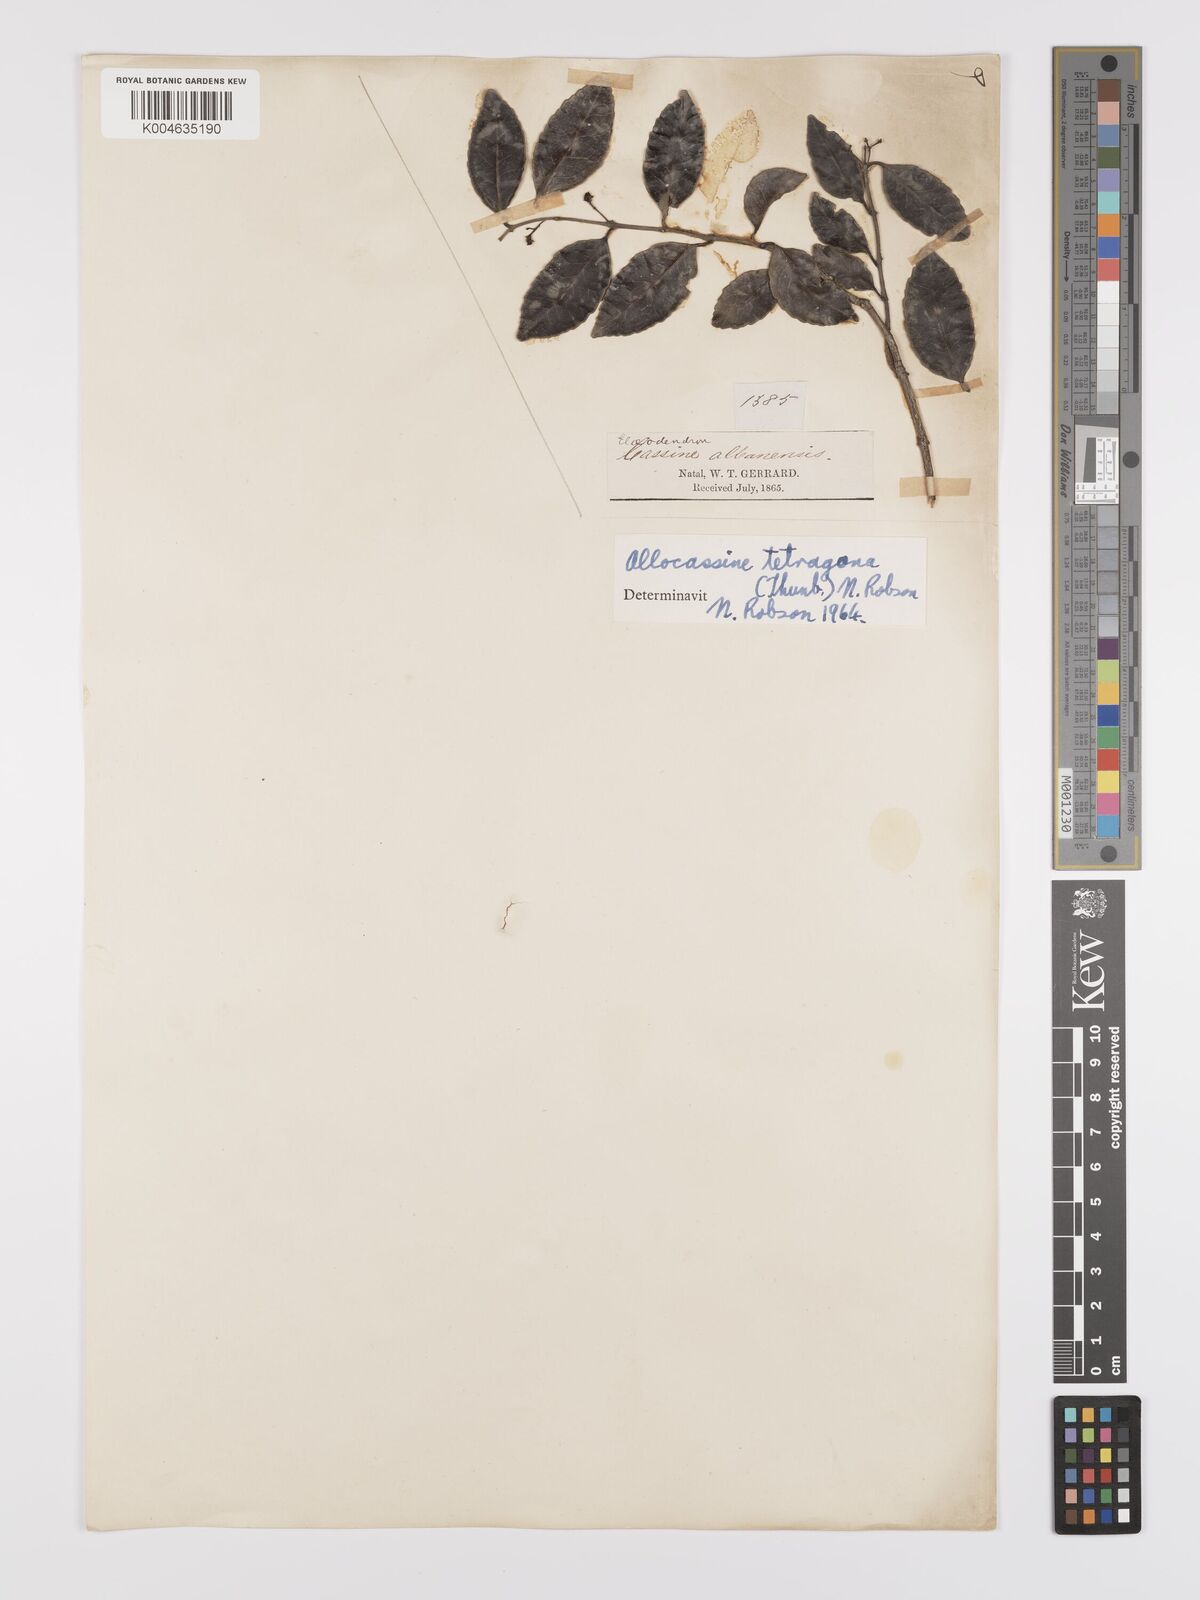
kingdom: Plantae
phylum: Tracheophyta
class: Magnoliopsida
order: Celastrales
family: Celastraceae
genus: Lauridia
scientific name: Lauridia tetragona
